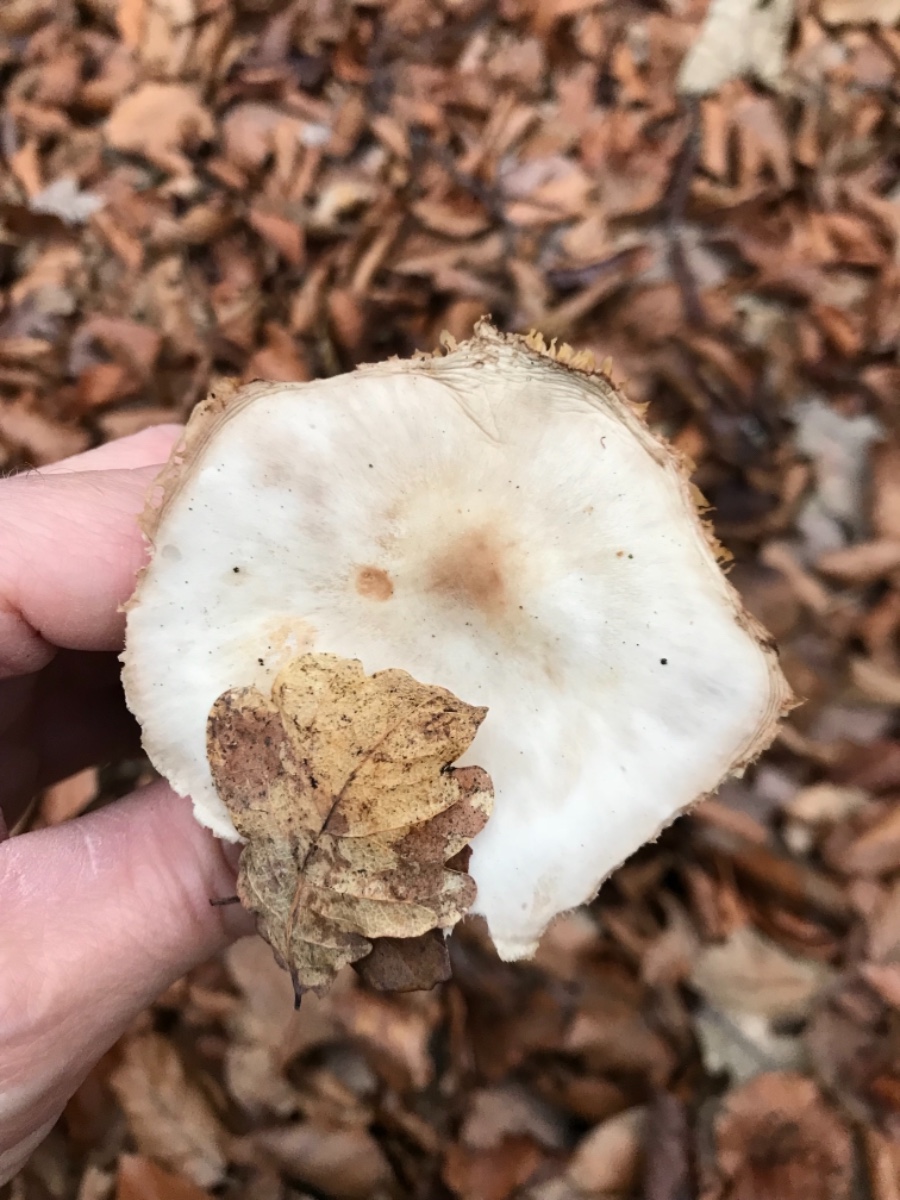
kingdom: Fungi
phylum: Basidiomycota
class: Agaricomycetes
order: Agaricales
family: Omphalotaceae
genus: Rhodocollybia
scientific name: Rhodocollybia asema
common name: horngrå fladhat
